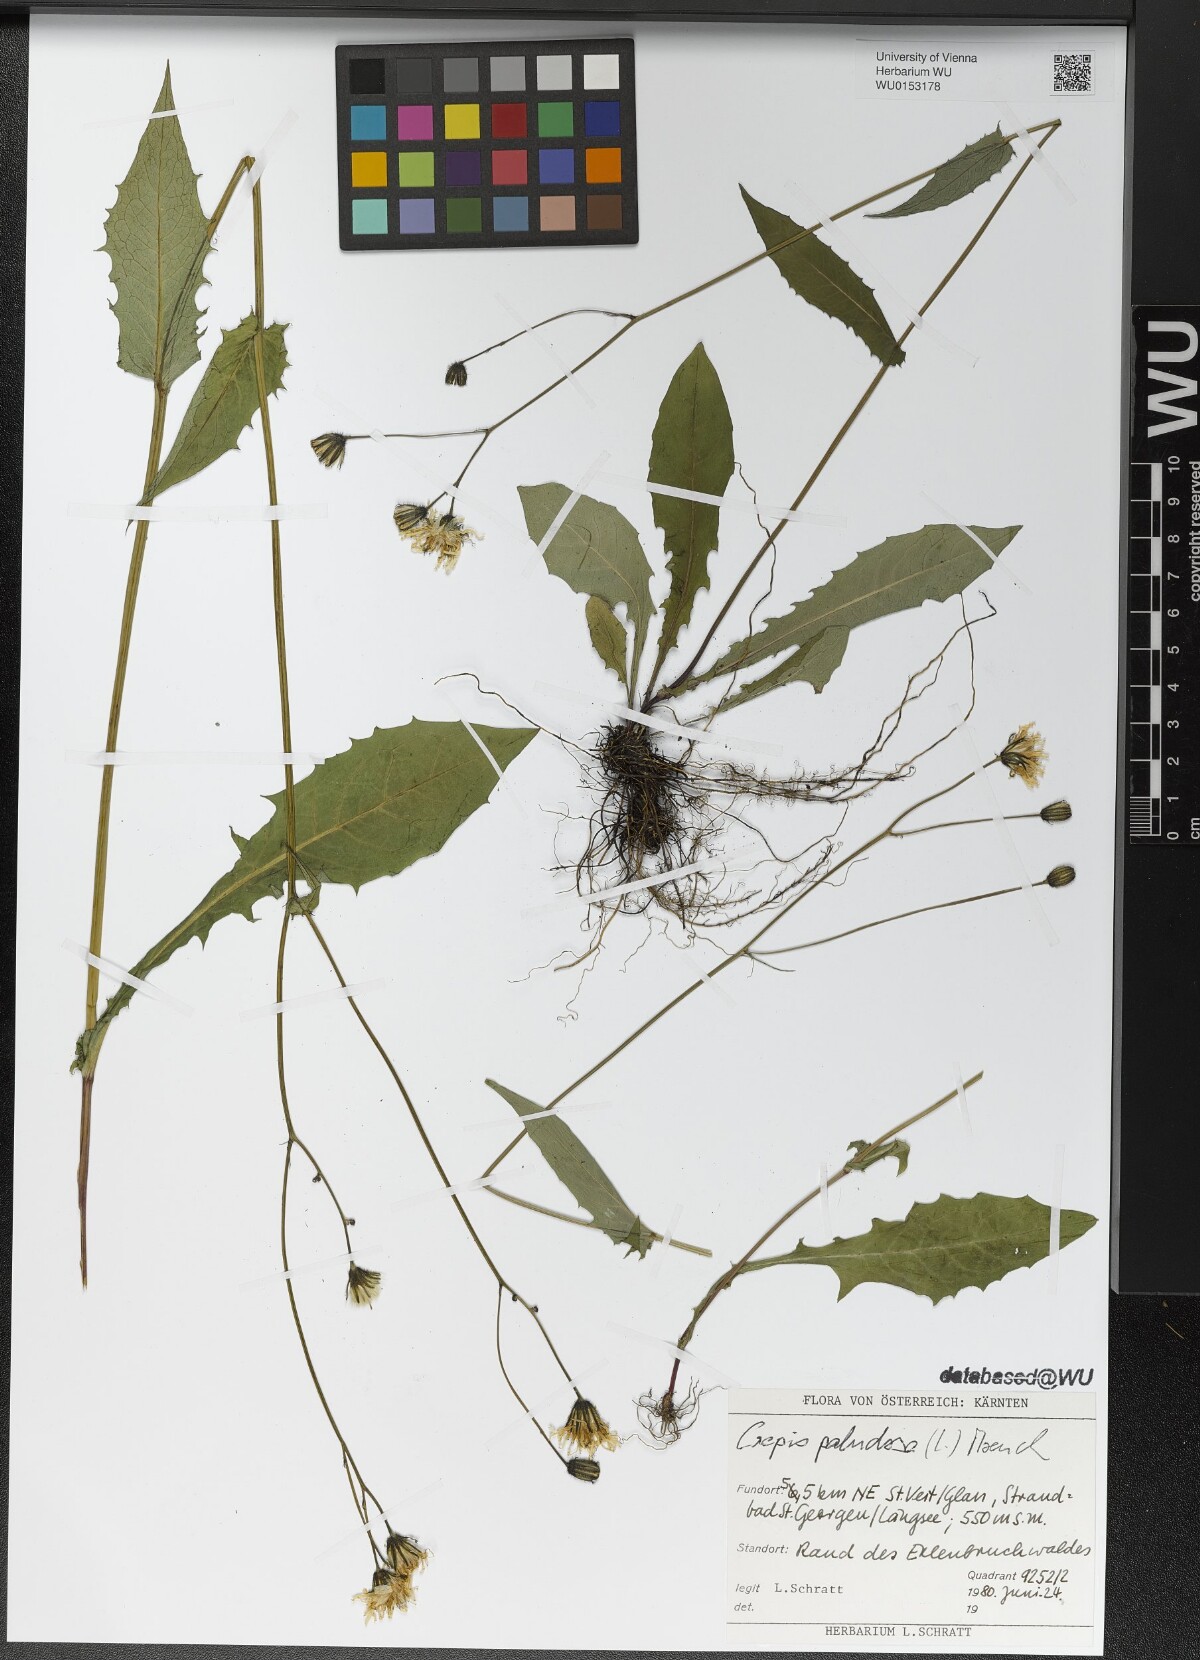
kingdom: Plantae
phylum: Tracheophyta
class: Magnoliopsida
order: Asterales
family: Asteraceae
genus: Crepis
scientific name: Crepis paludosa
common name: Marsh hawk's-beard
